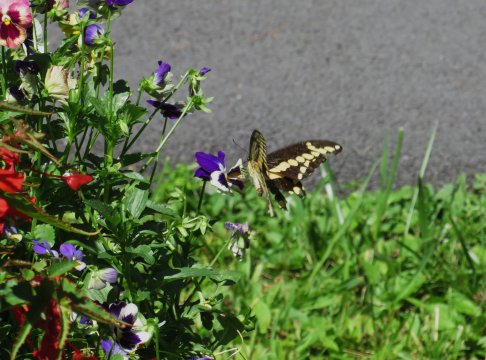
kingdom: Animalia
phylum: Arthropoda
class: Insecta
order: Lepidoptera
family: Papilionidae
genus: Papilio
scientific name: Papilio cresphontes
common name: Eastern Giant Swallowtail
